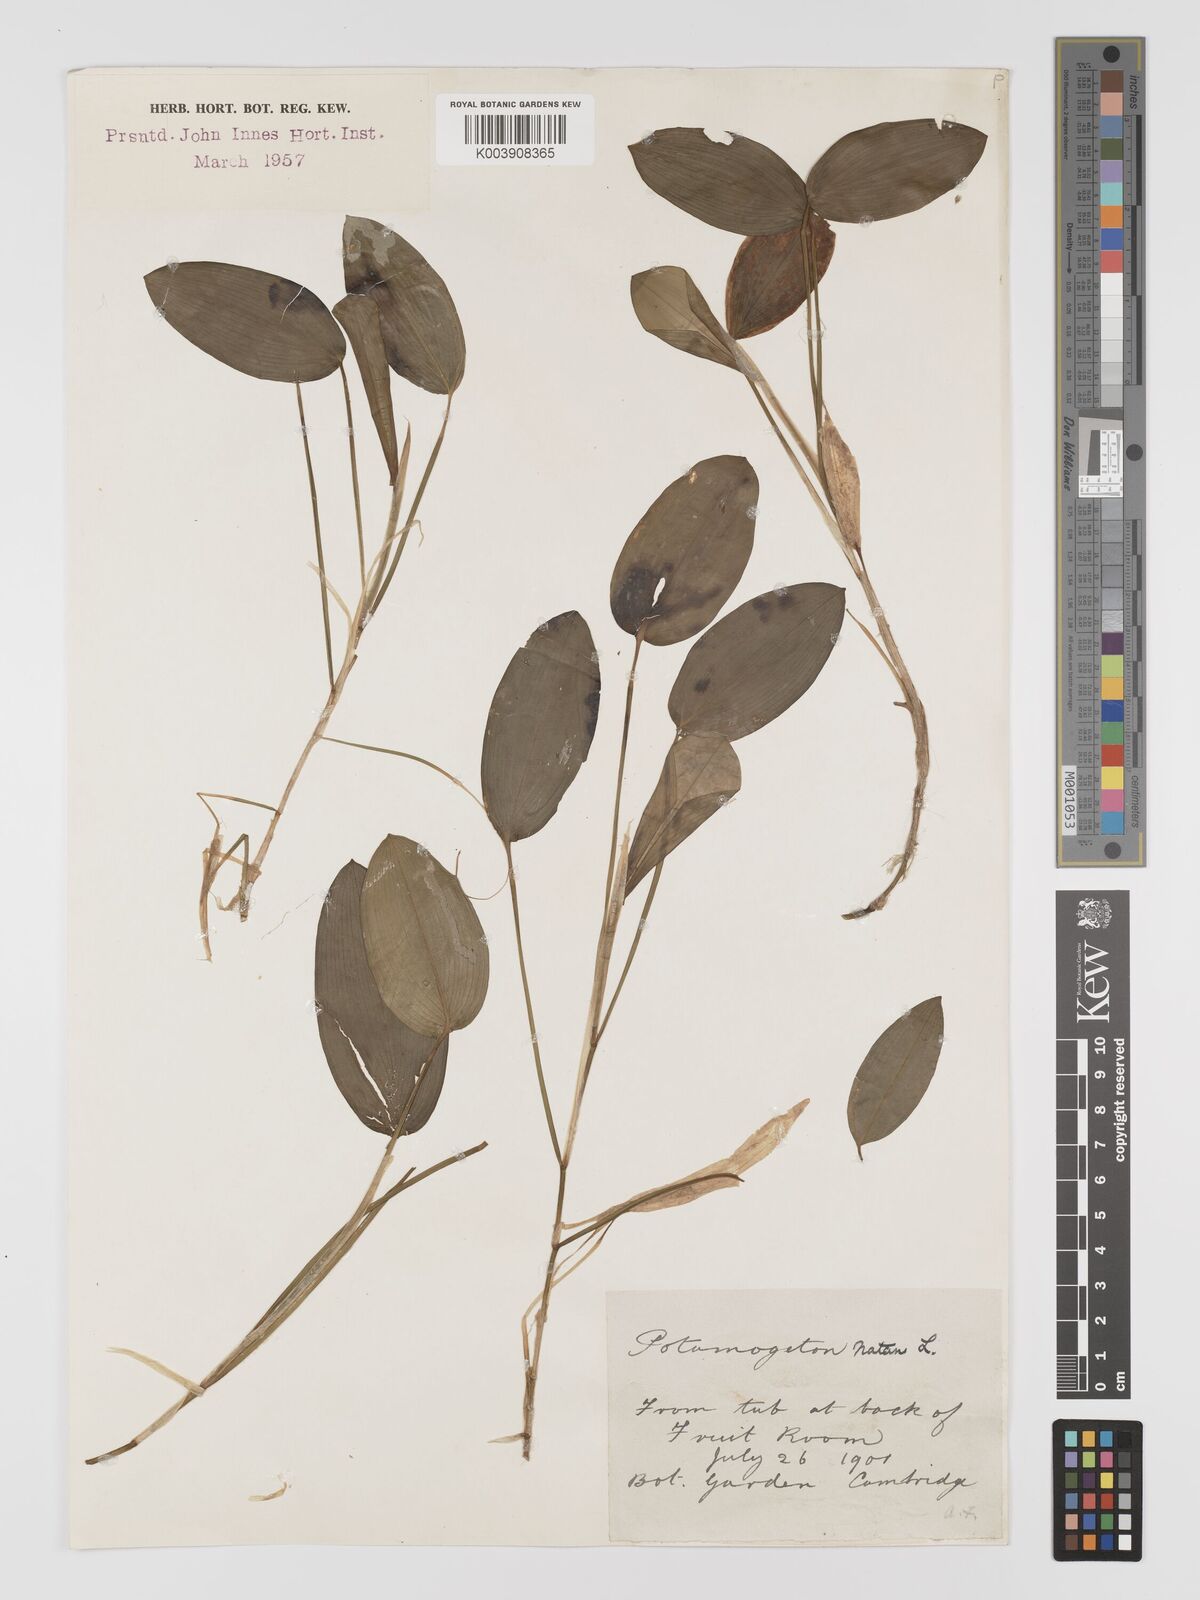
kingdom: Plantae
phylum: Tracheophyta
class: Liliopsida
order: Alismatales
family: Potamogetonaceae
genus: Potamogeton
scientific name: Potamogeton natans
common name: Broad-leaved pondweed
